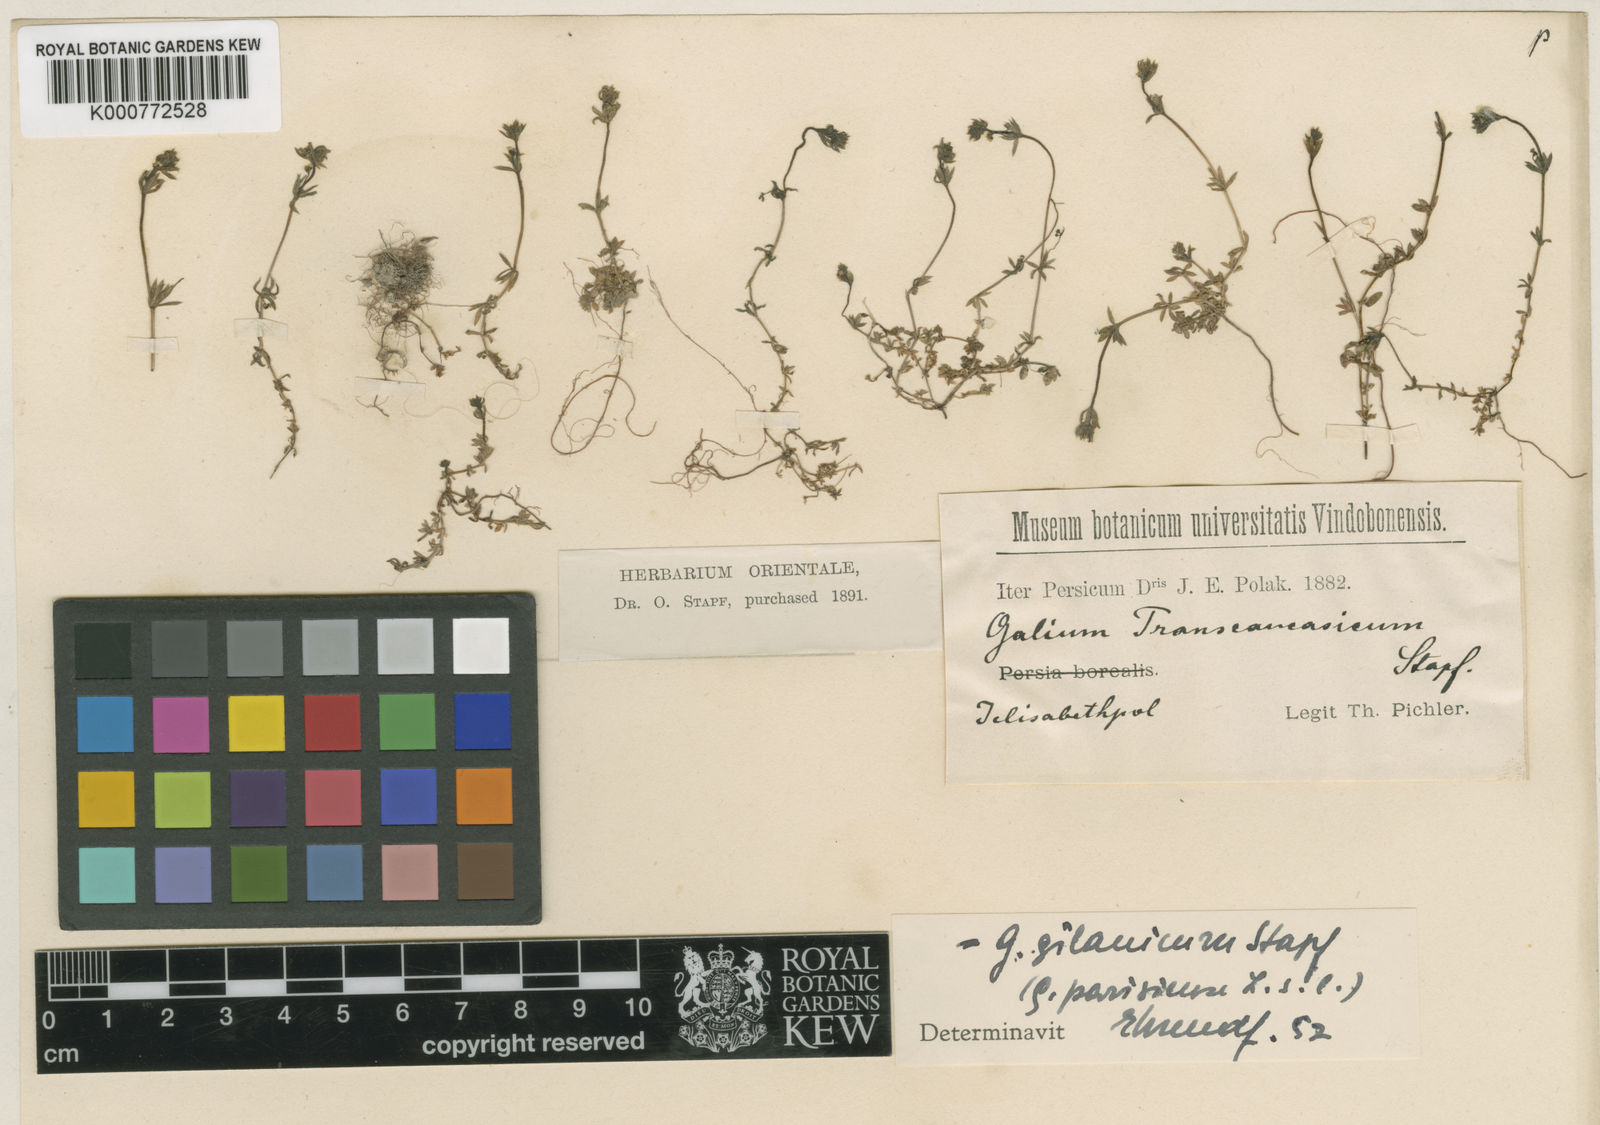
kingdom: Plantae
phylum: Tracheophyta
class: Magnoliopsida
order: Gentianales
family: Rubiaceae
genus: Galium
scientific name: Galium
